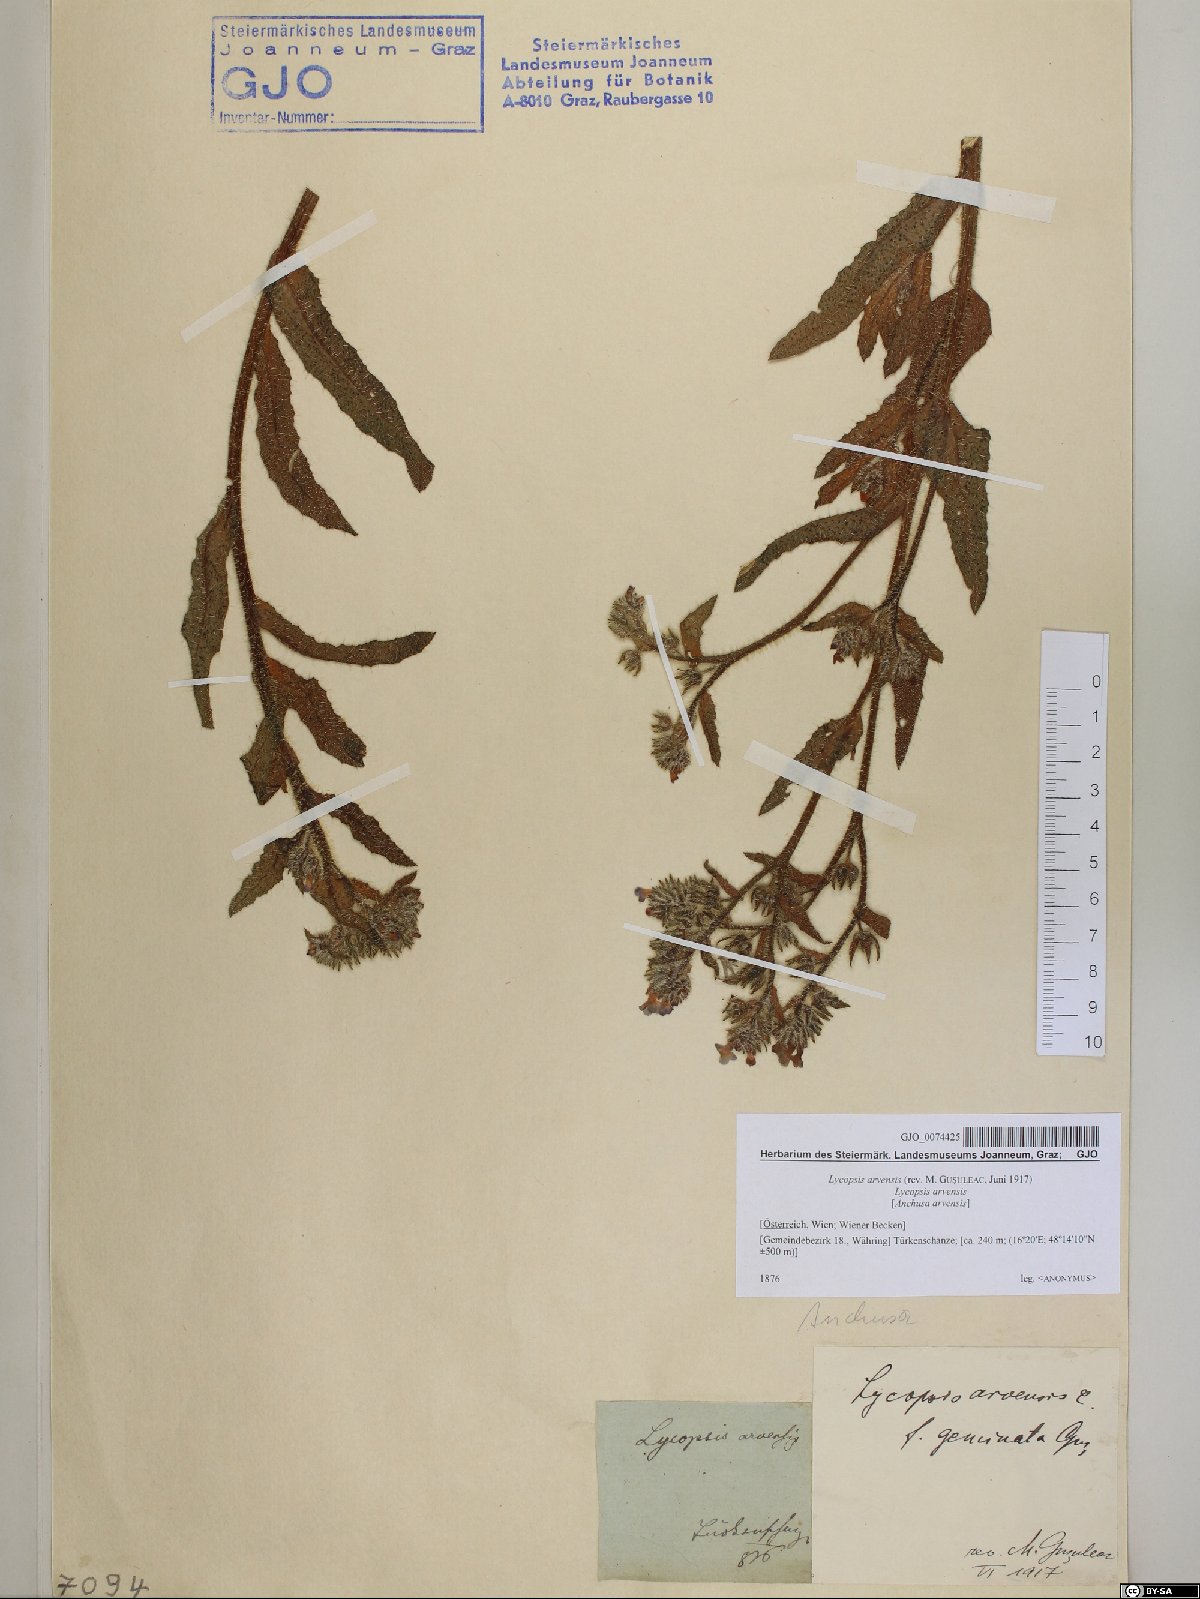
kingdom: Plantae
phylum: Tracheophyta
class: Magnoliopsida
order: Boraginales
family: Boraginaceae
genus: Lycopsis
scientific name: Lycopsis arvensis
